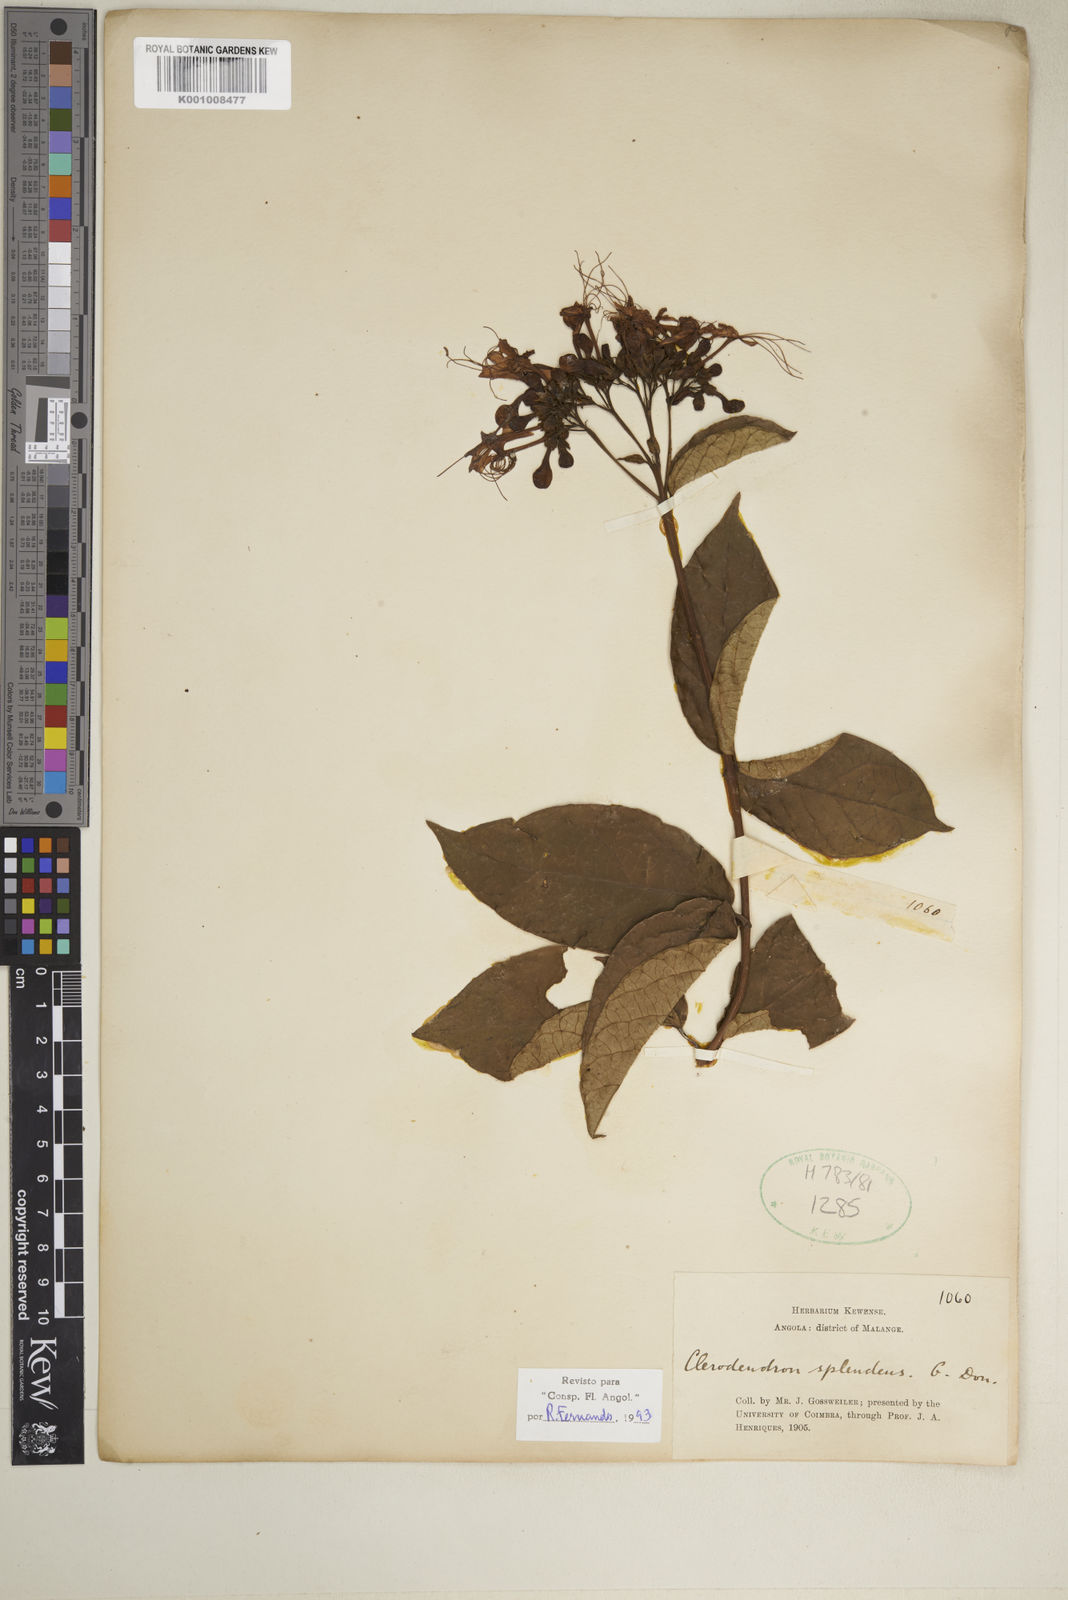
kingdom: Plantae
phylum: Tracheophyta
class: Magnoliopsida
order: Lamiales
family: Lamiaceae
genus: Clerodendrum
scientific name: Clerodendrum splendens
